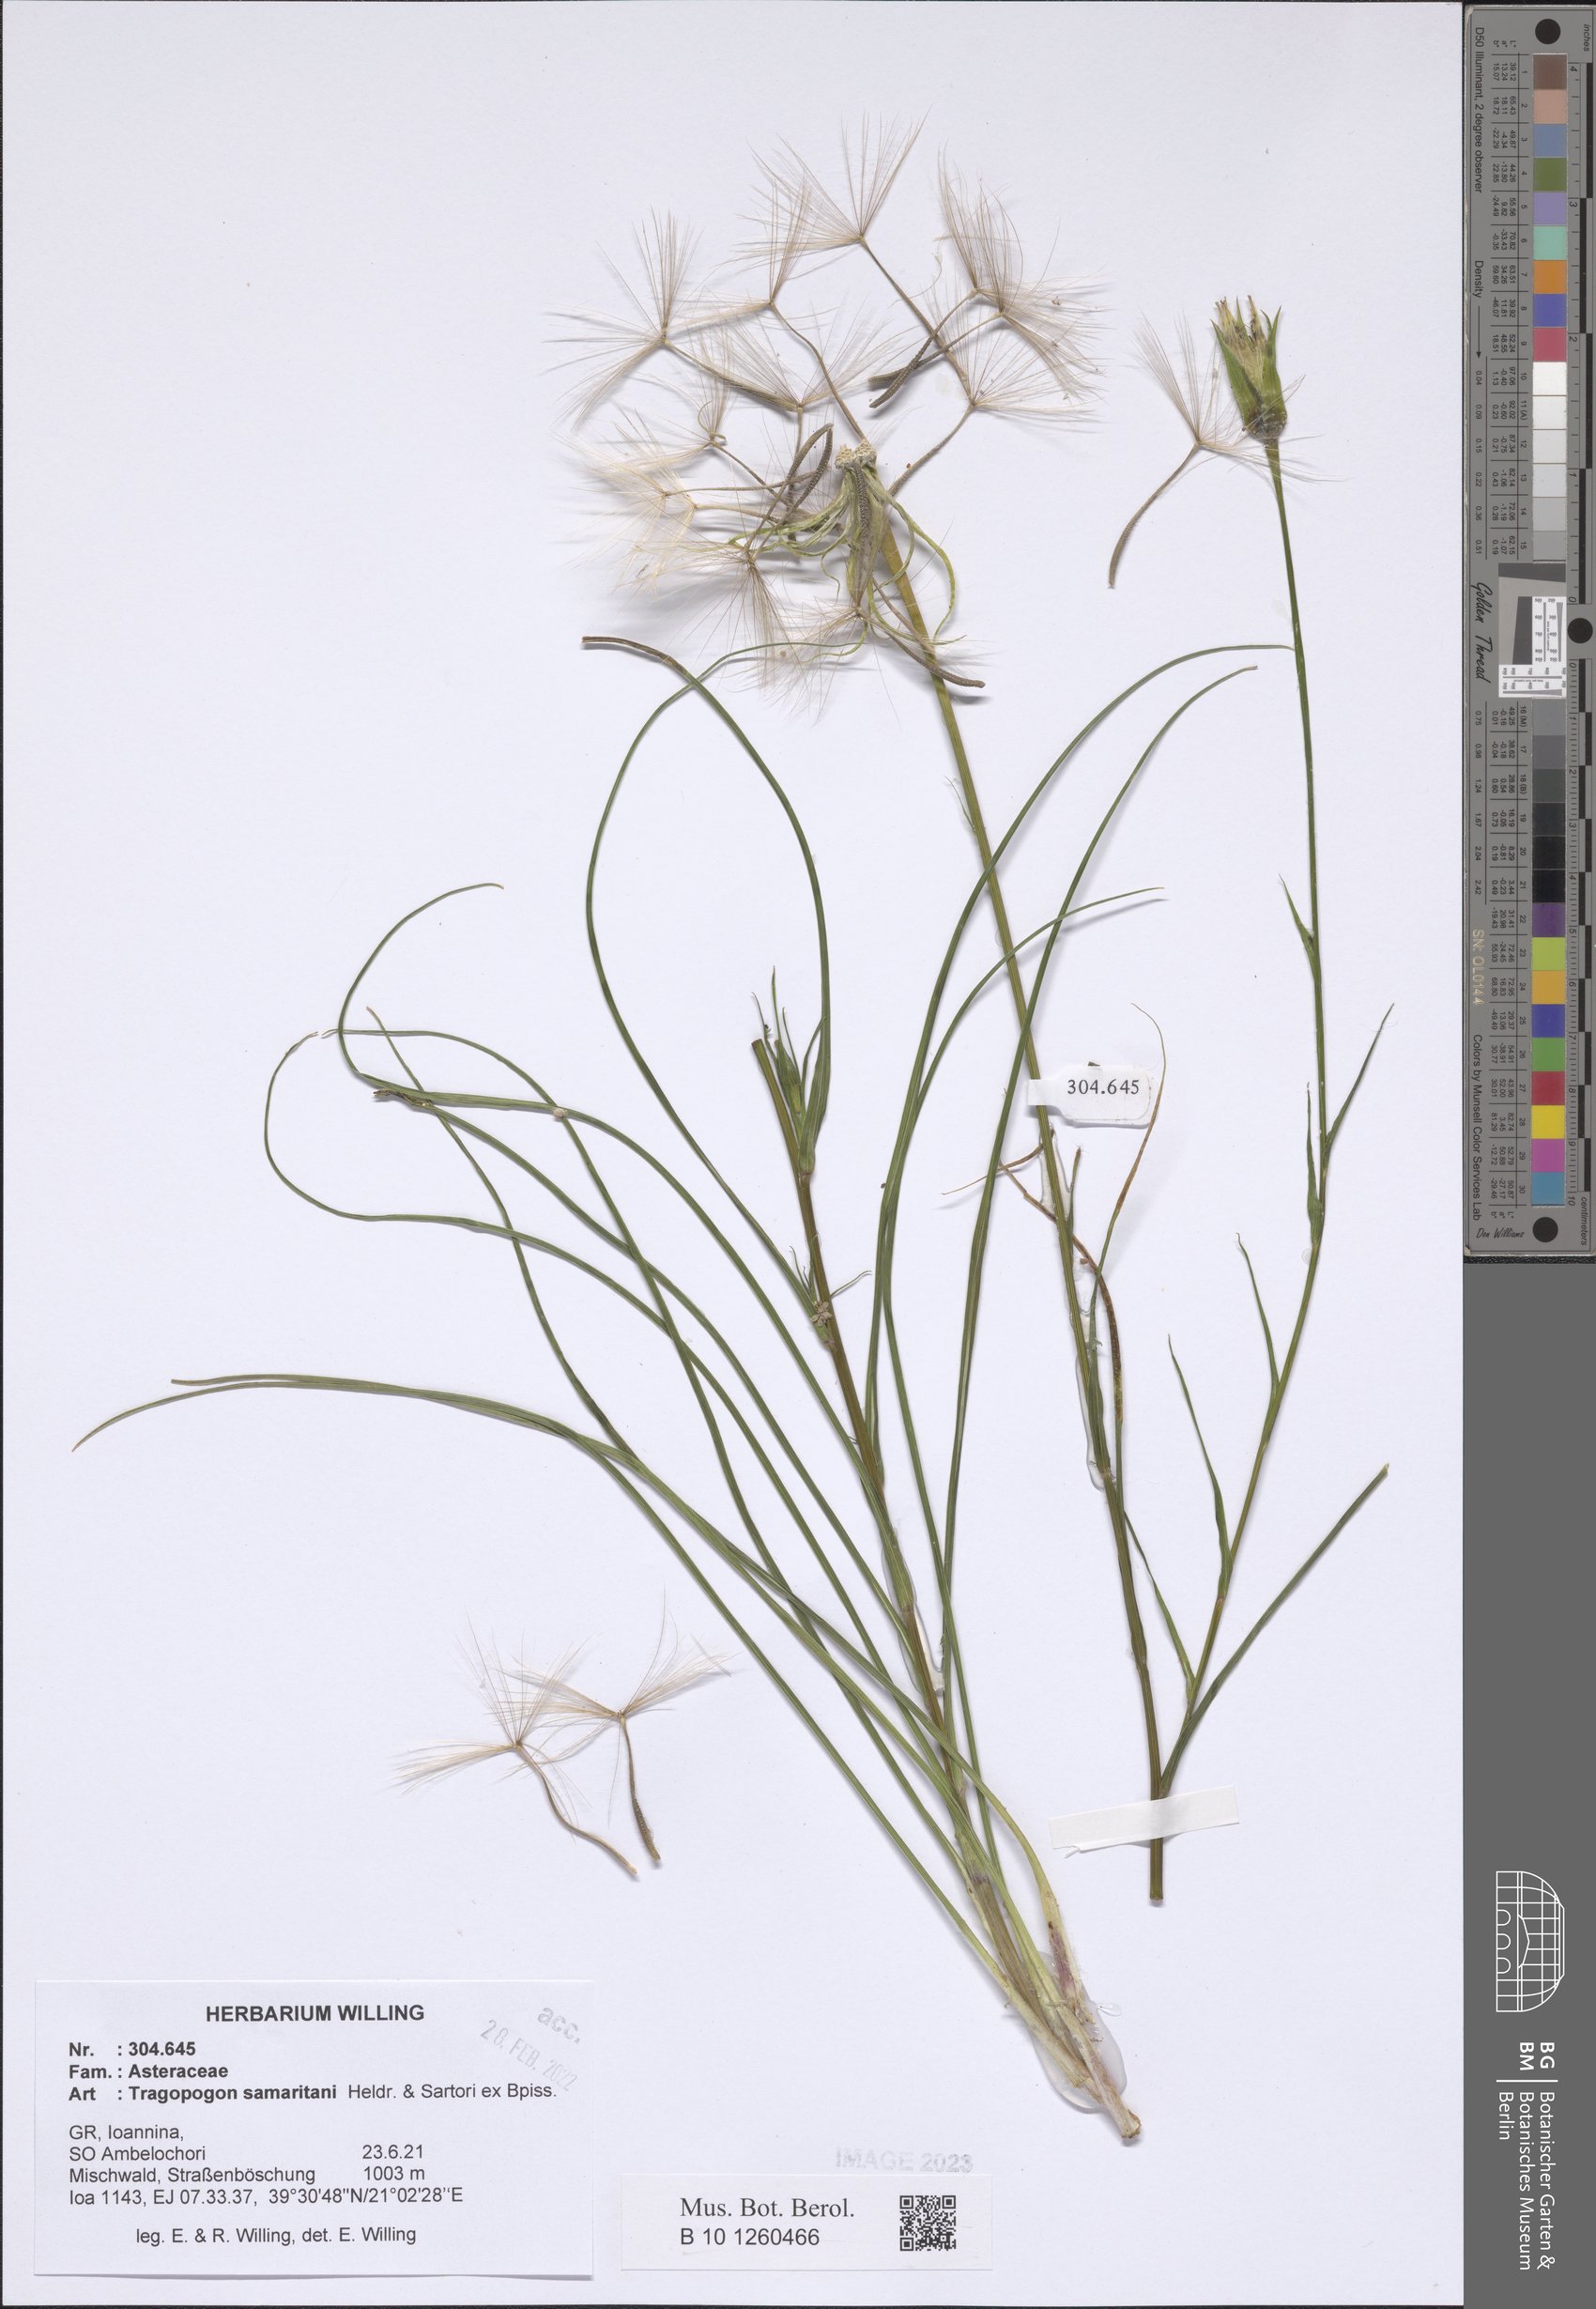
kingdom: Plantae
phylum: Tracheophyta
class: Magnoliopsida
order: Asterales
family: Asteraceae
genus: Tragopogon
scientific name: Tragopogon samaritani
